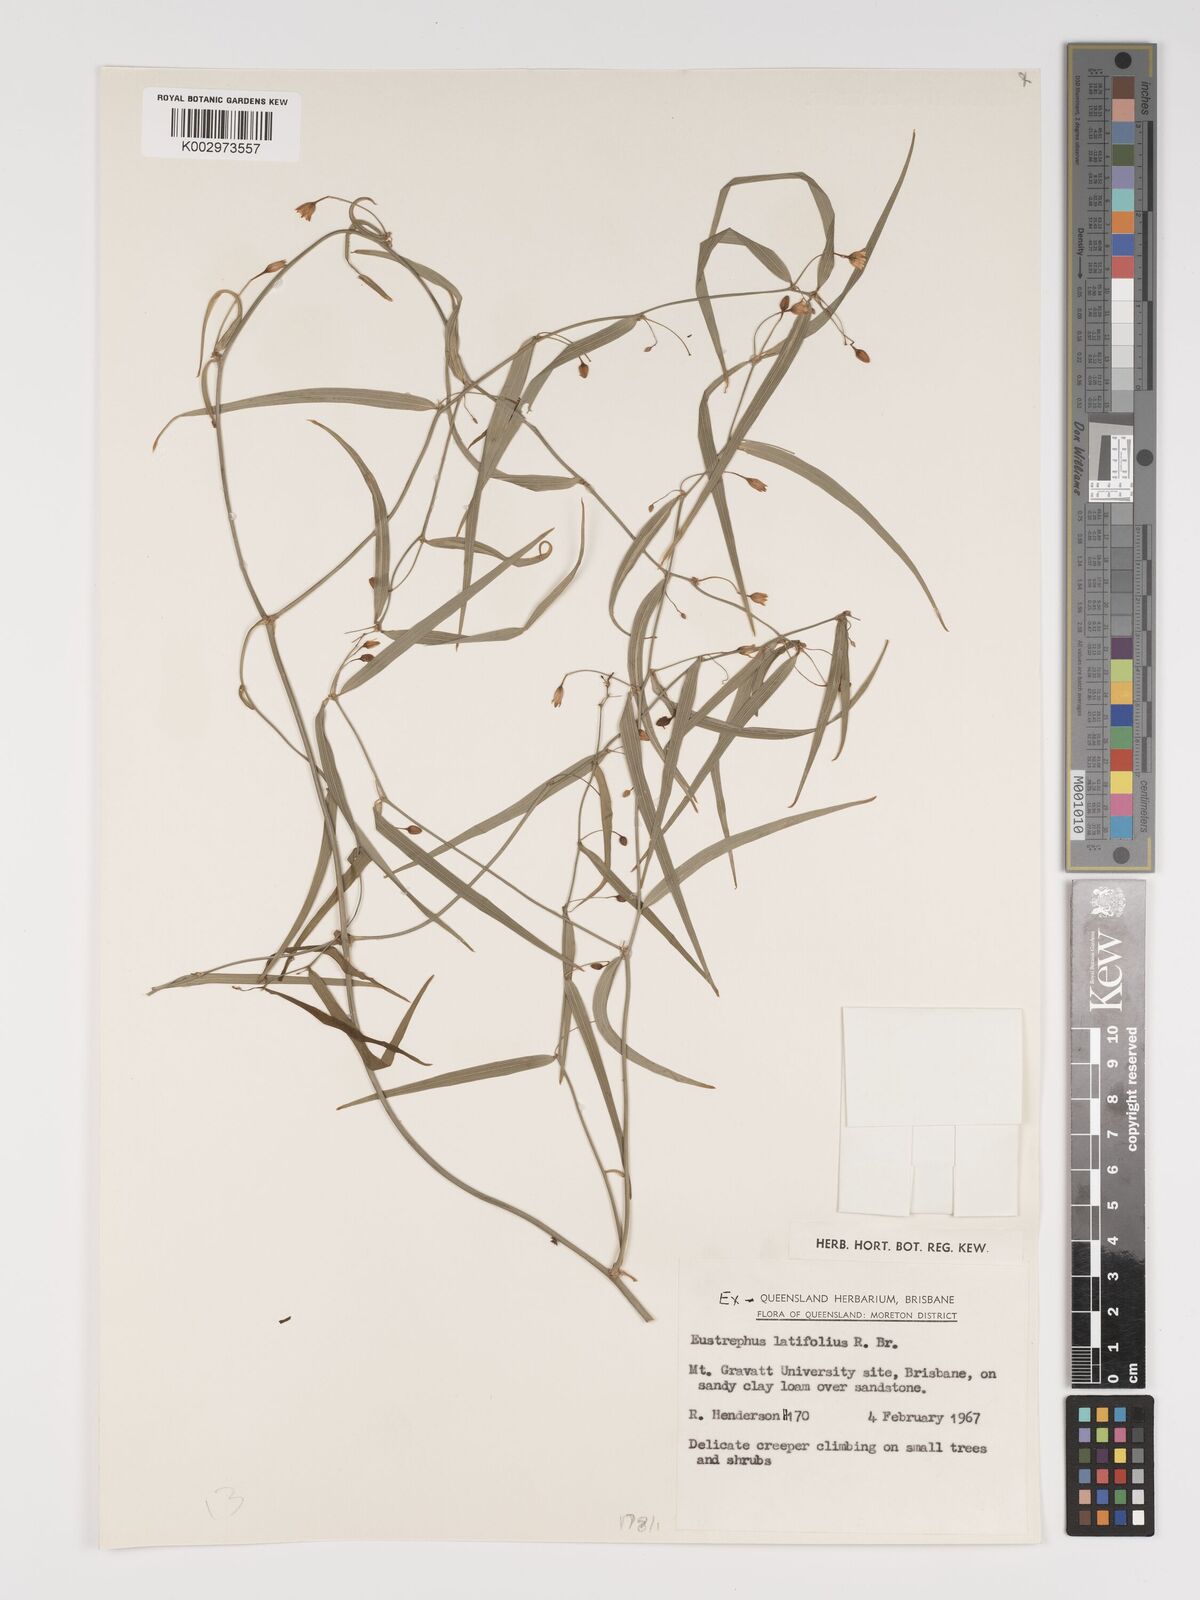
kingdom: Plantae
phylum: Tracheophyta
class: Liliopsida
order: Asparagales
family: Asparagaceae
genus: Eustrephus
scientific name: Eustrephus latifolius
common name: Orangevine
